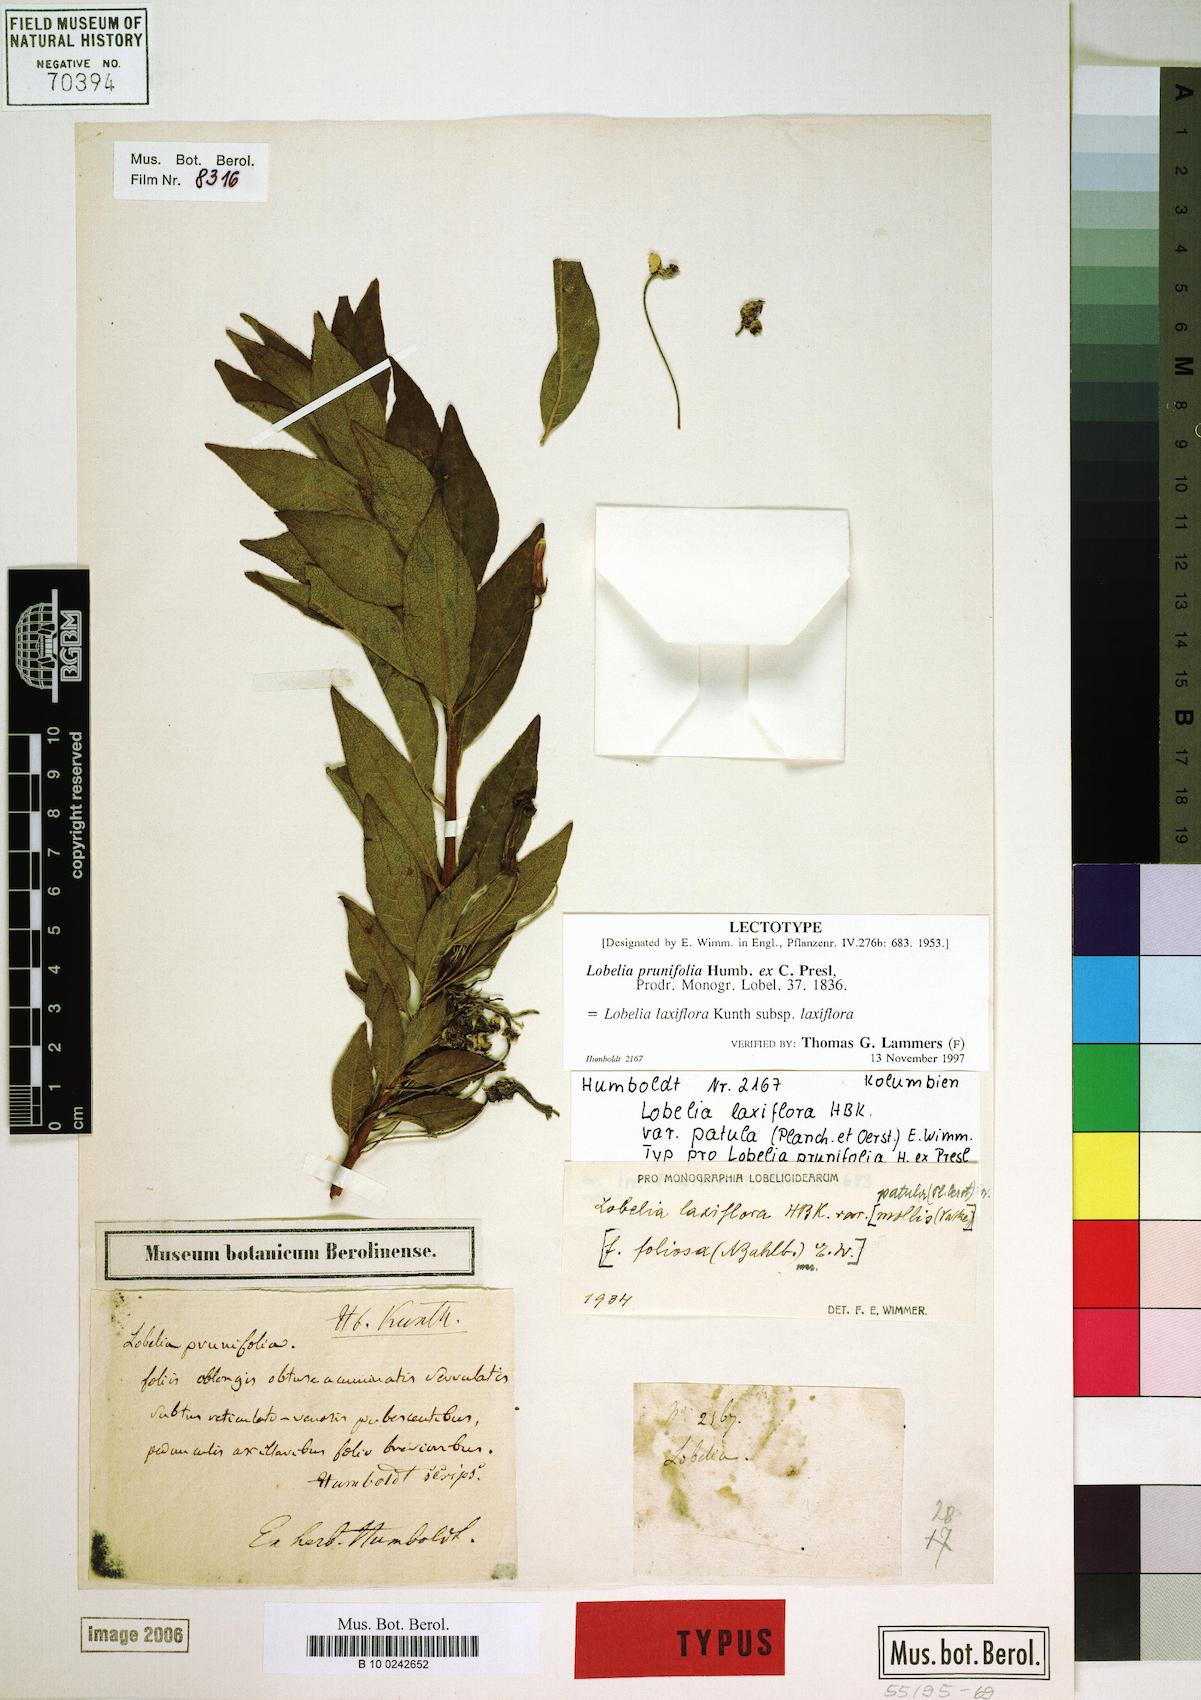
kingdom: Plantae
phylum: Tracheophyta
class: Magnoliopsida
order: Asterales
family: Campanulaceae
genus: Lobelia
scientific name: Lobelia laxiflora
